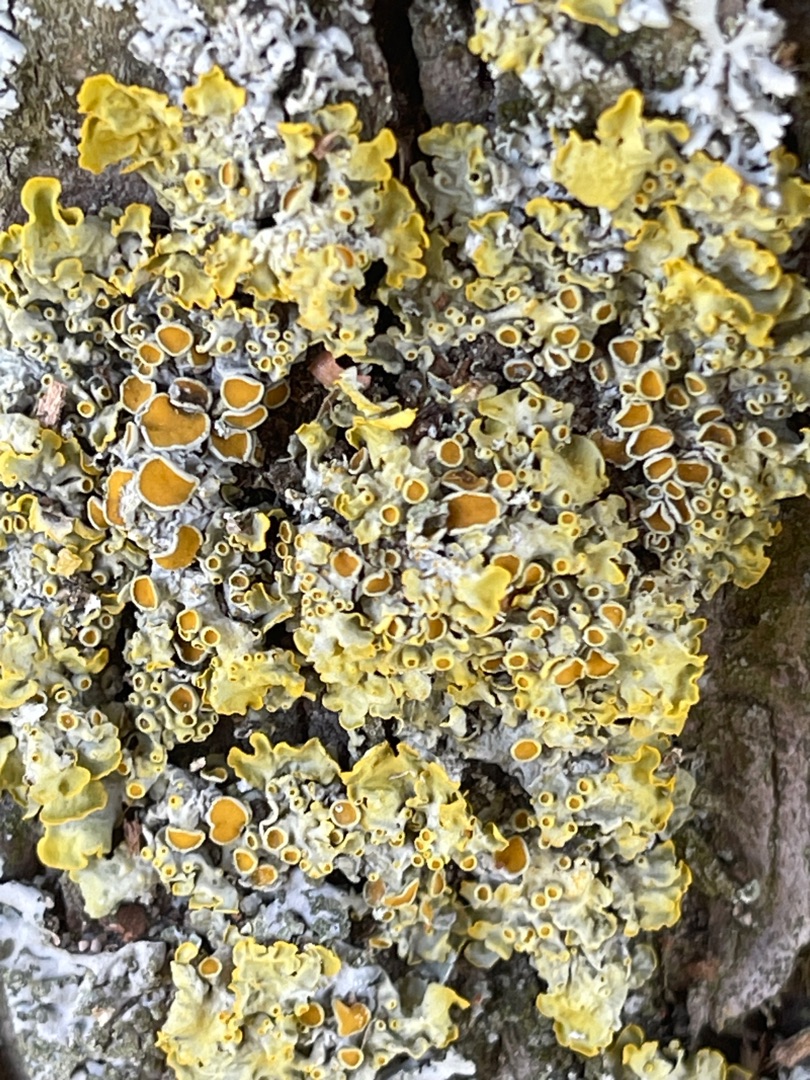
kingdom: Fungi
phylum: Ascomycota
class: Lecanoromycetes
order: Teloschistales
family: Teloschistaceae
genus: Xanthoria
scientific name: Xanthoria parietina
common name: Almindelig væggelav
